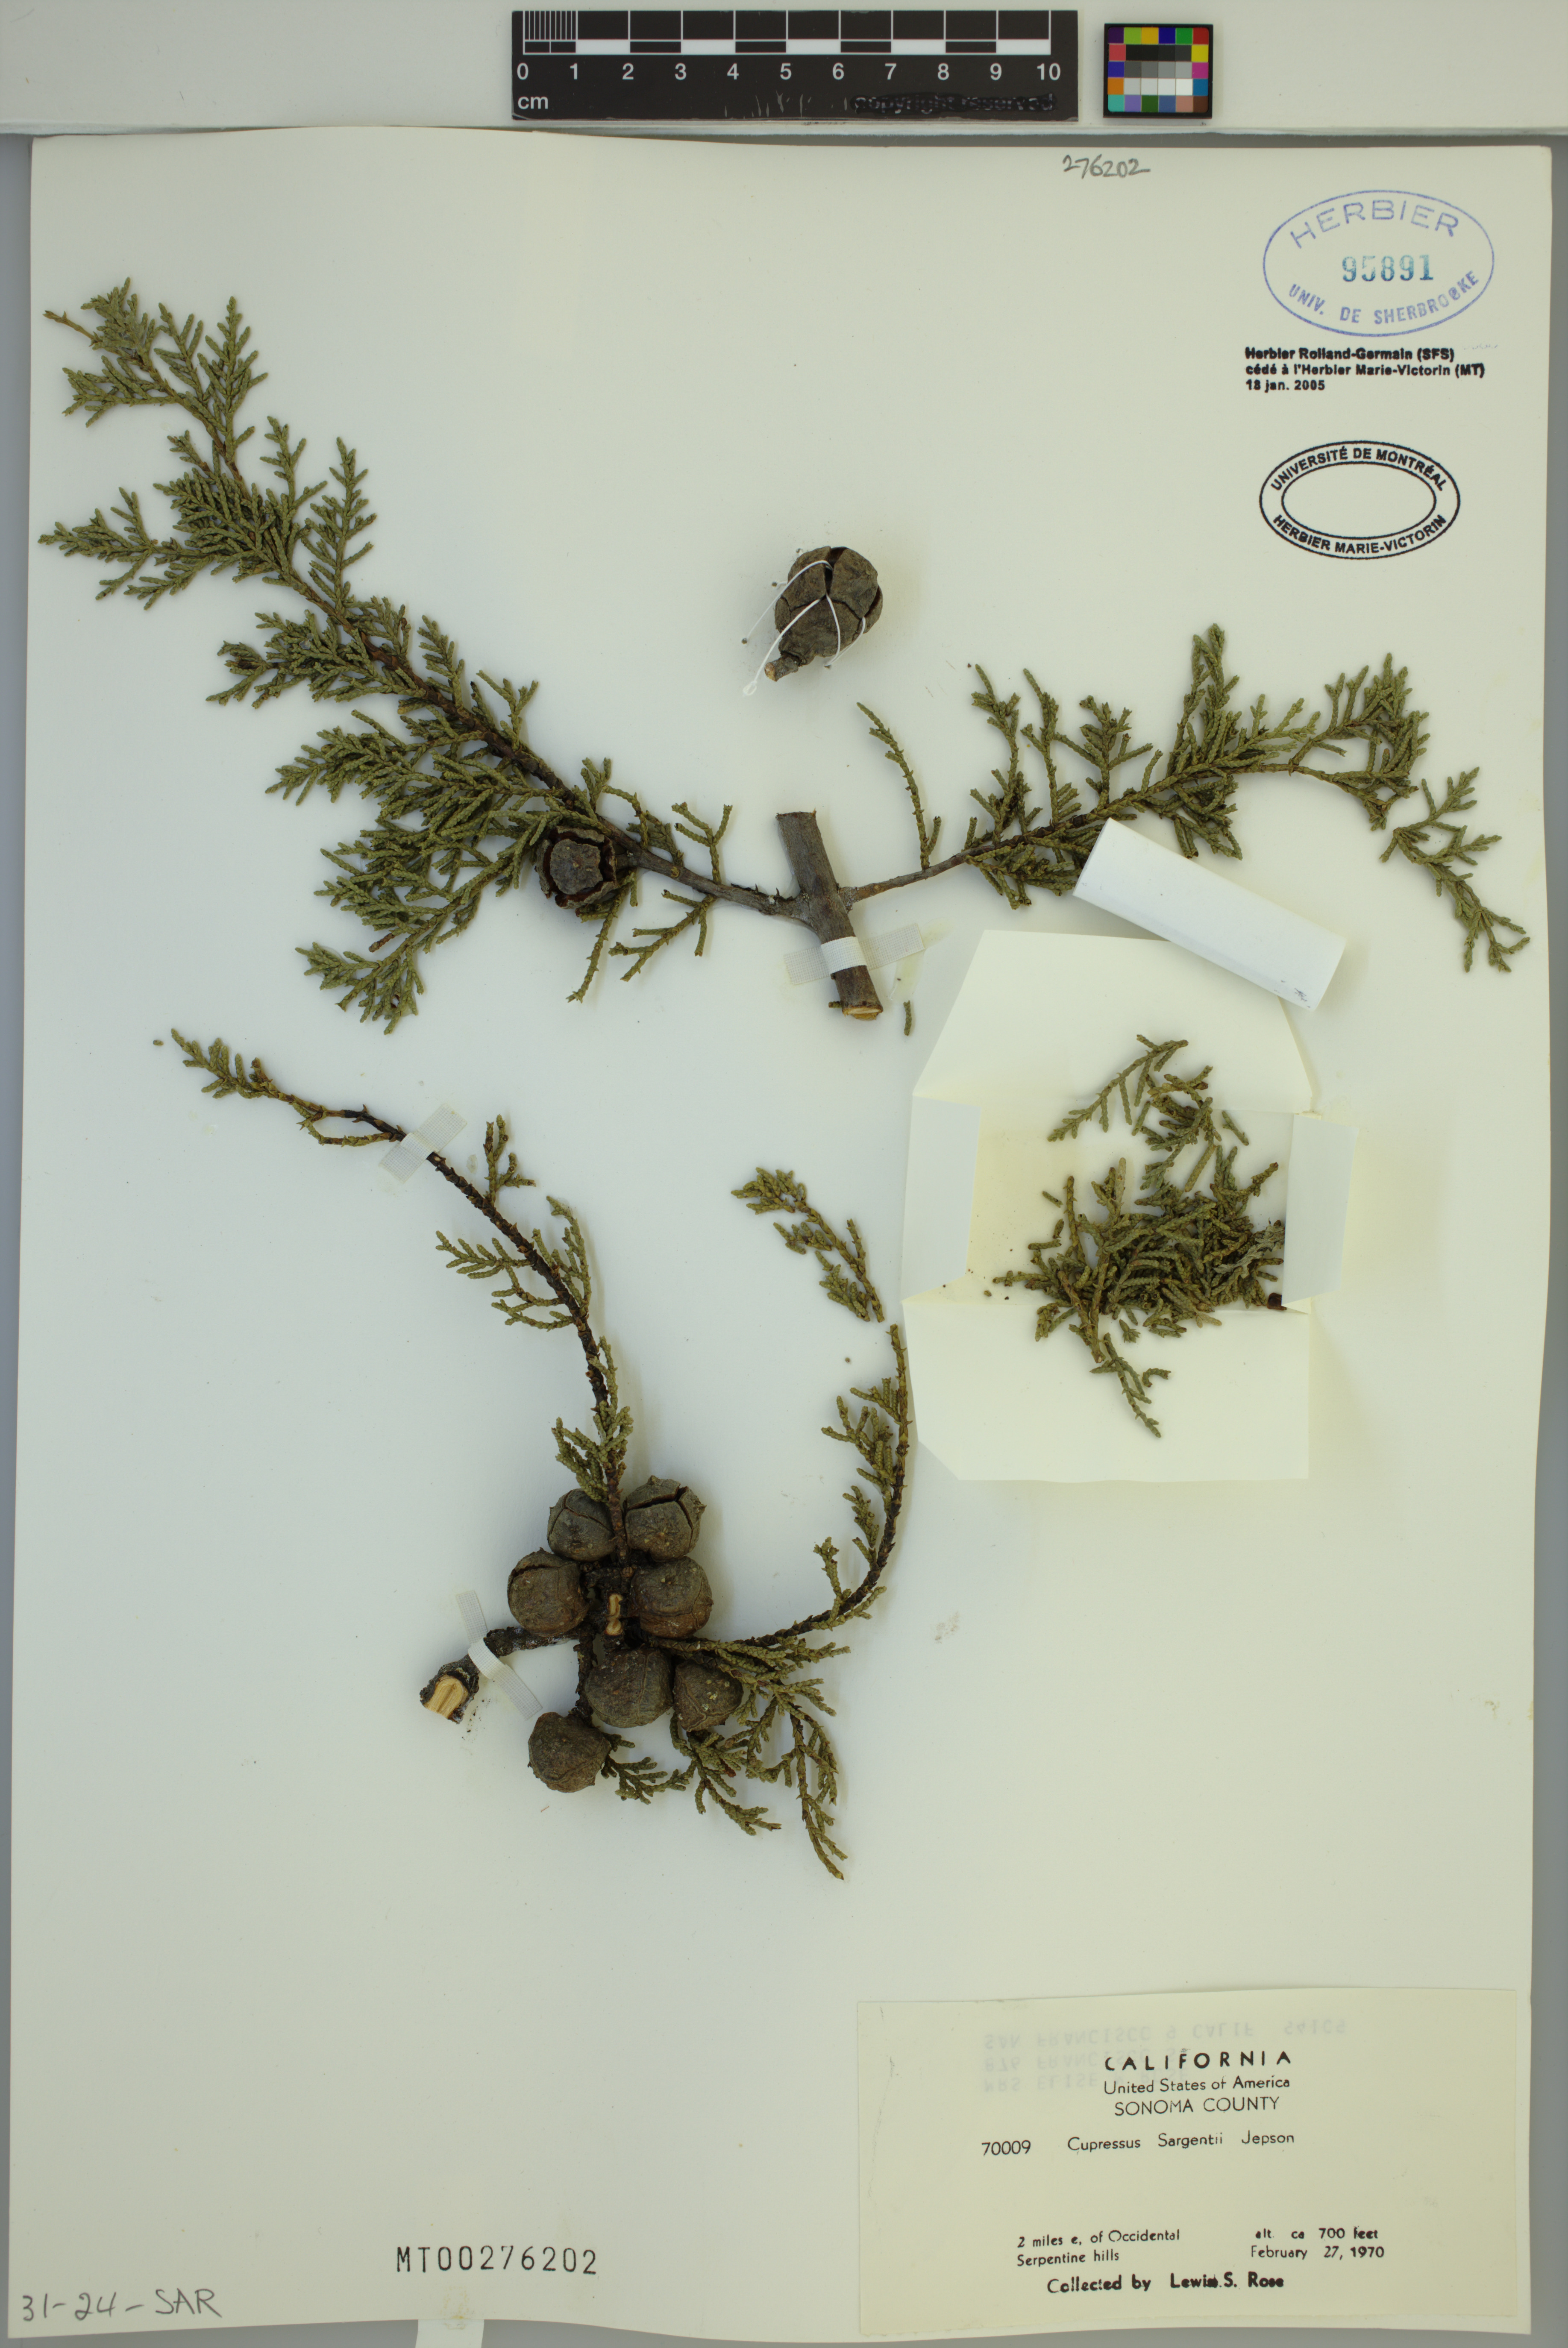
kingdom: Plantae
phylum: Tracheophyta
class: Pinopsida
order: Pinales
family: Cupressaceae
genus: Cupressus
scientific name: Cupressus sargentii
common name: Sargent cypress
